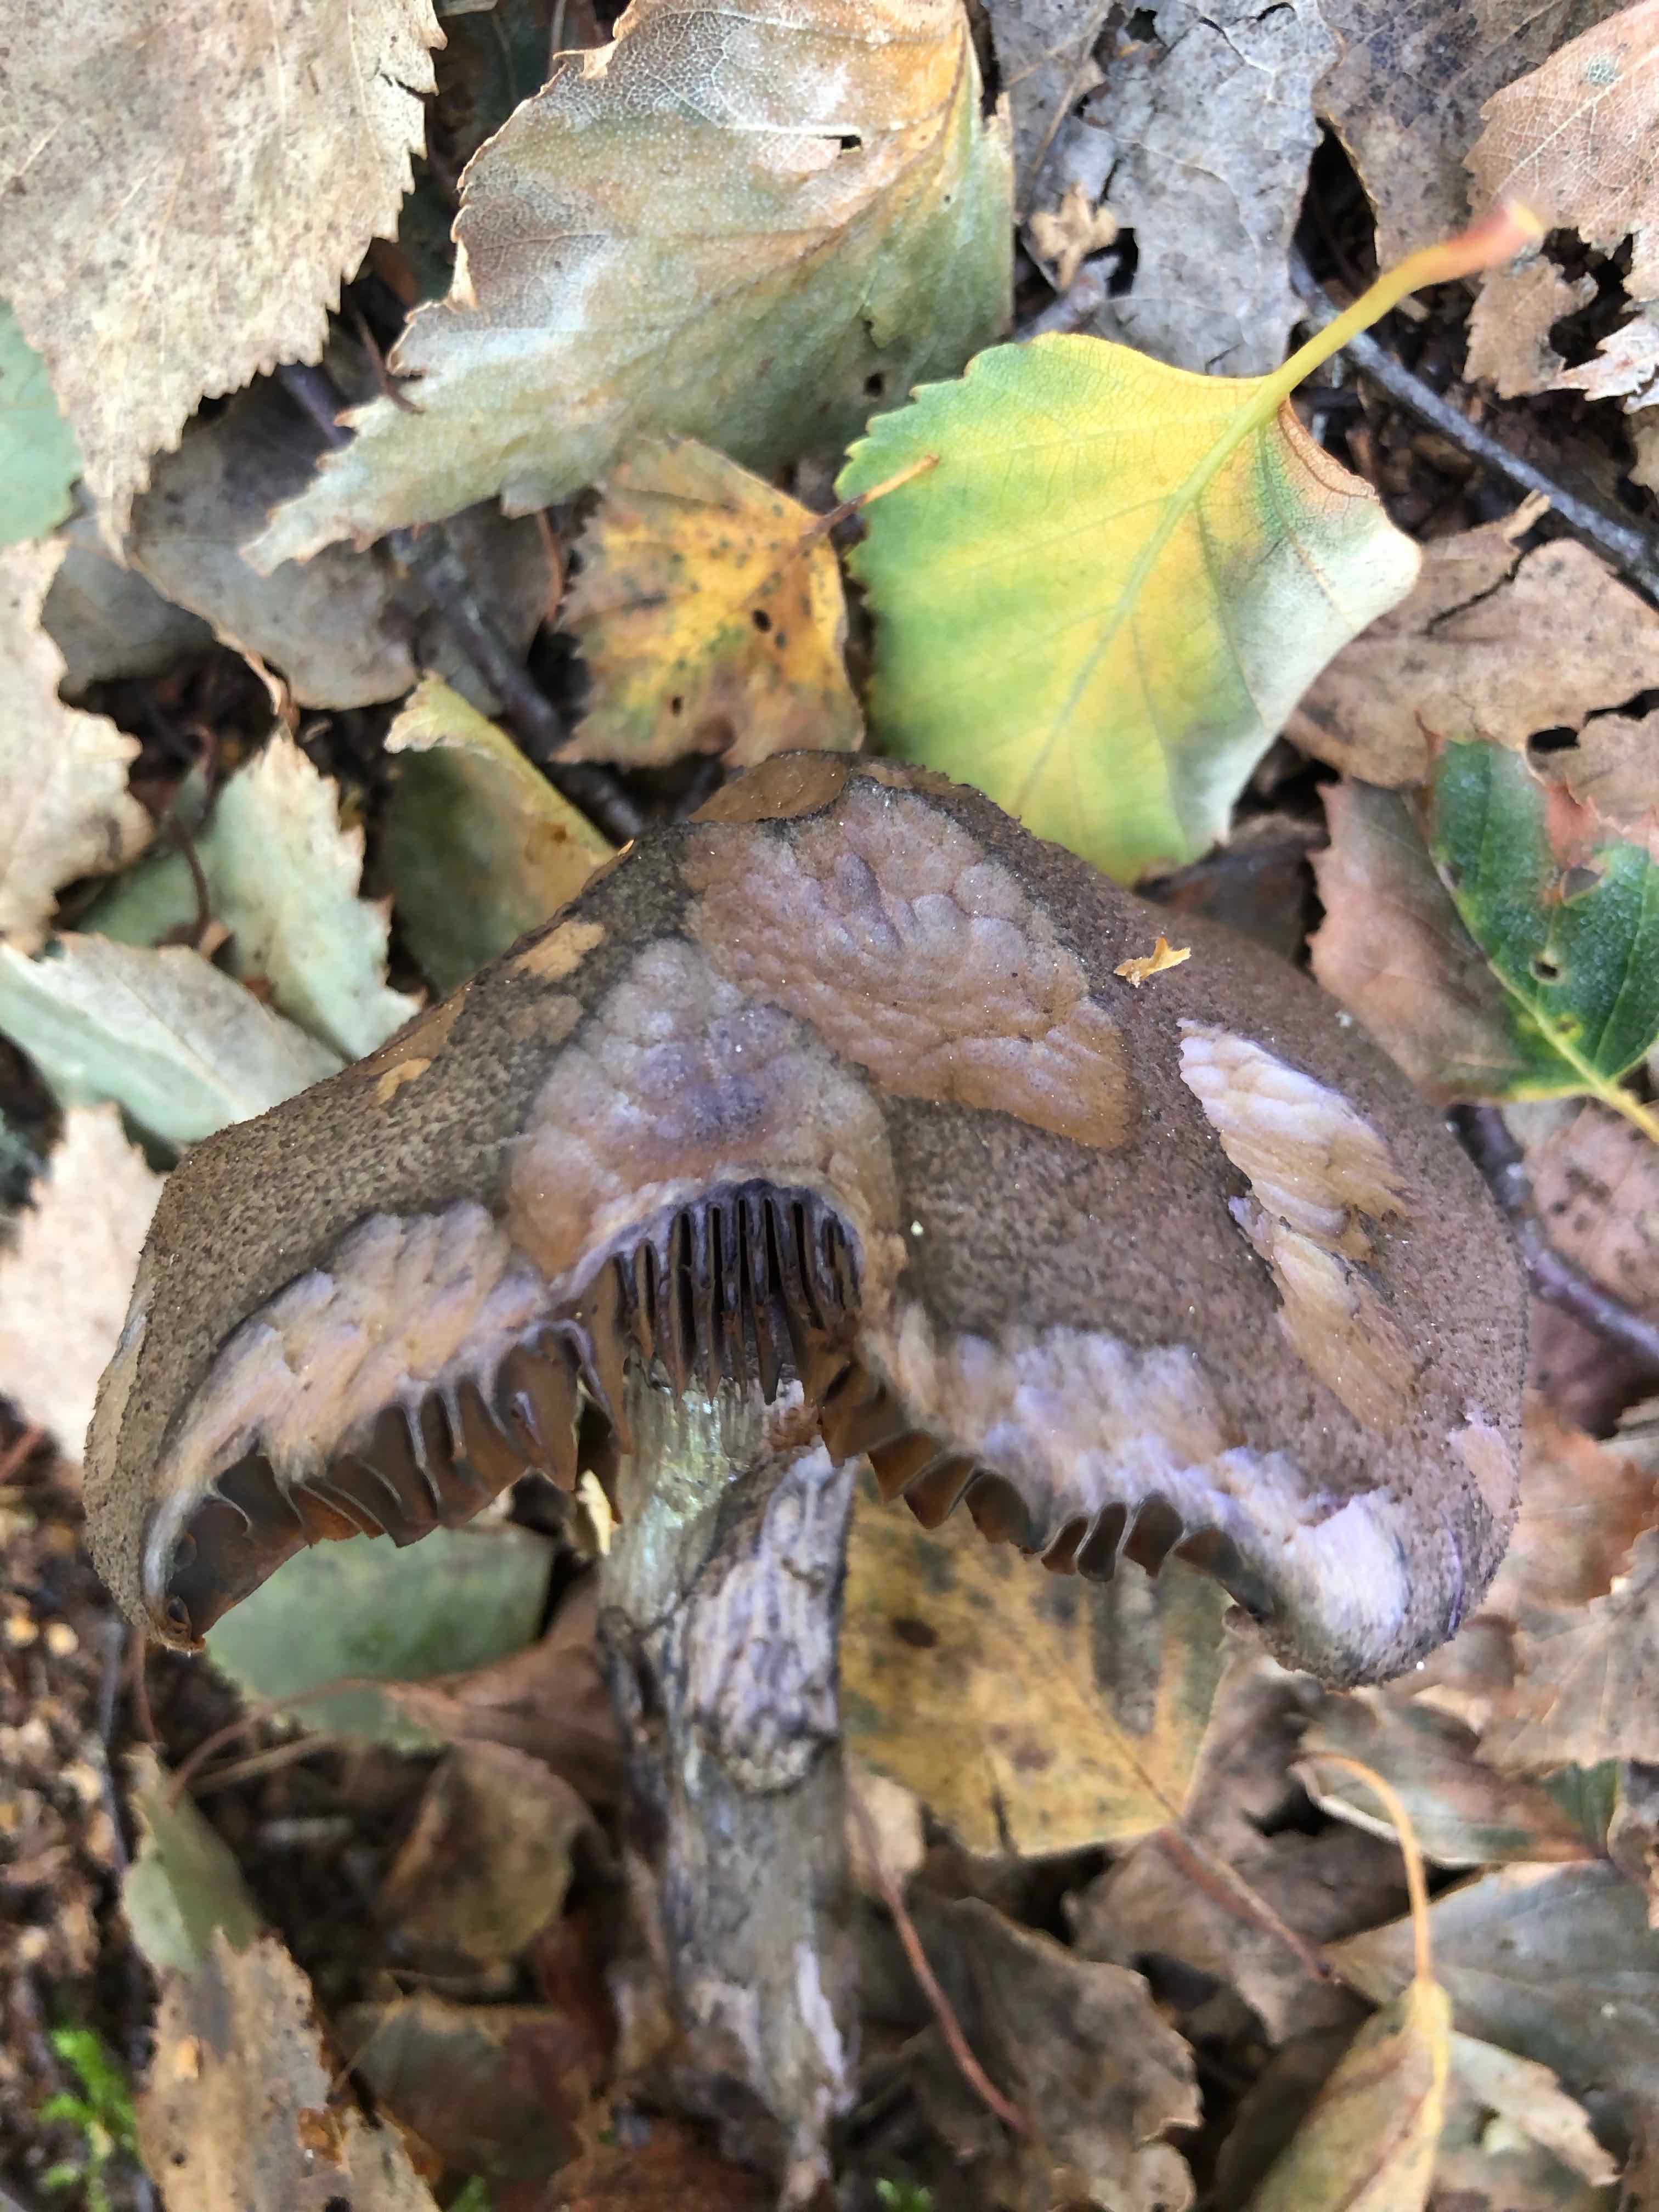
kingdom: Fungi
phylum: Basidiomycota
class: Agaricomycetes
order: Agaricales
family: Cortinariaceae
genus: Cortinarius
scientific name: Cortinarius violaceus
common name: mørkviolet slørhat
